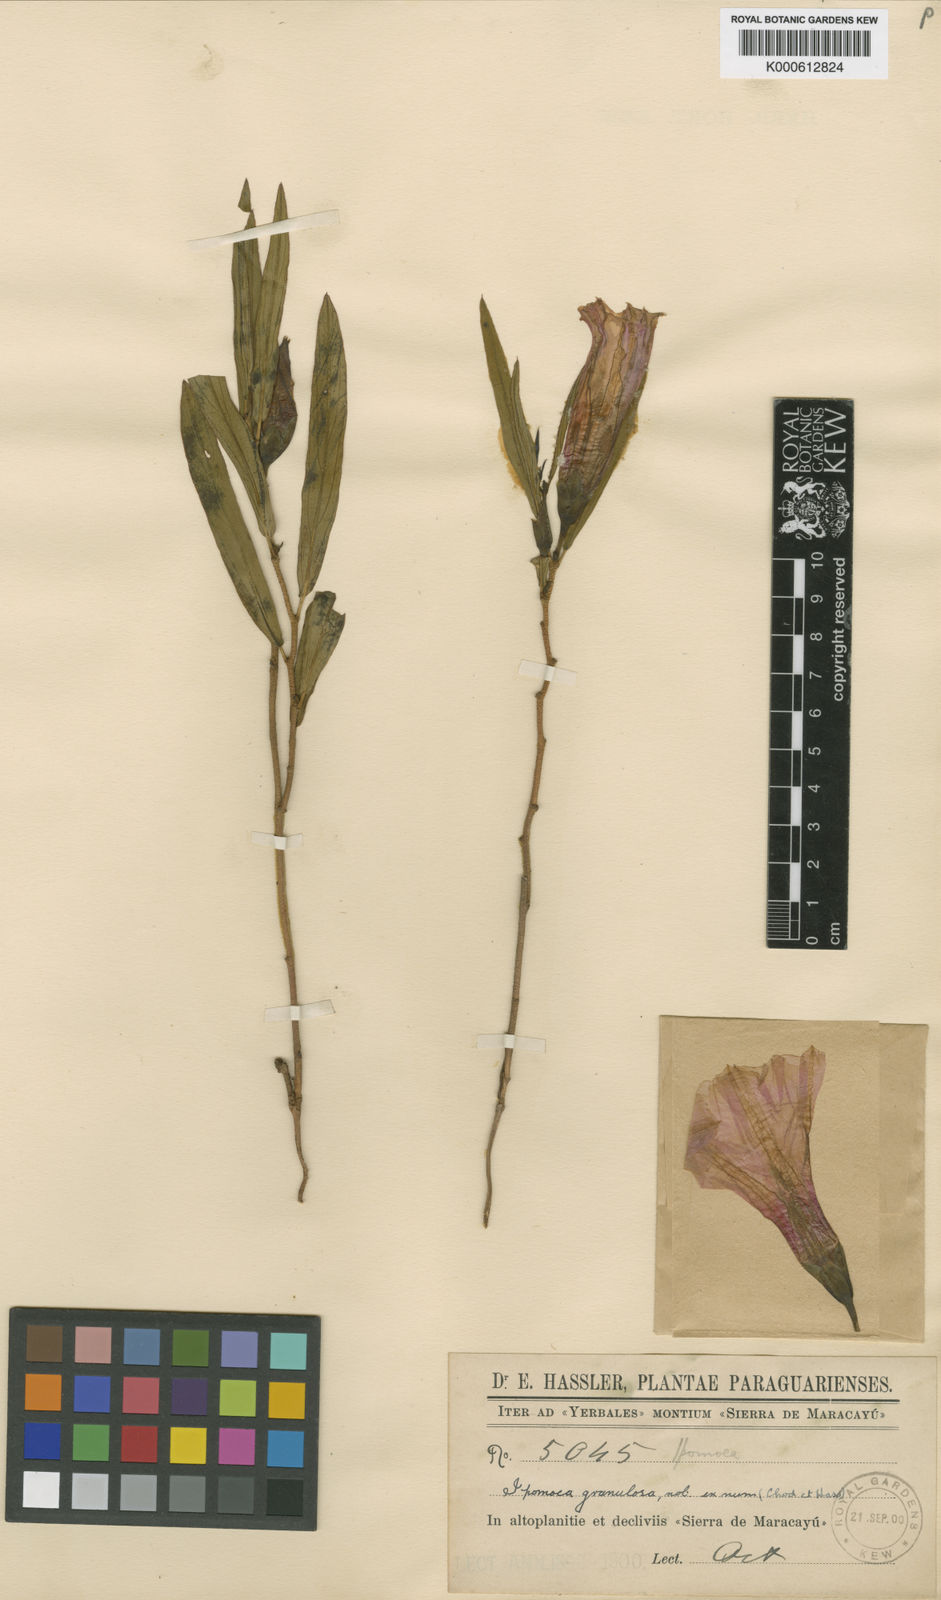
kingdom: Plantae
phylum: Tracheophyta
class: Magnoliopsida
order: Solanales
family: Convolvulaceae
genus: Ipomoea
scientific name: Ipomoea granulosa
